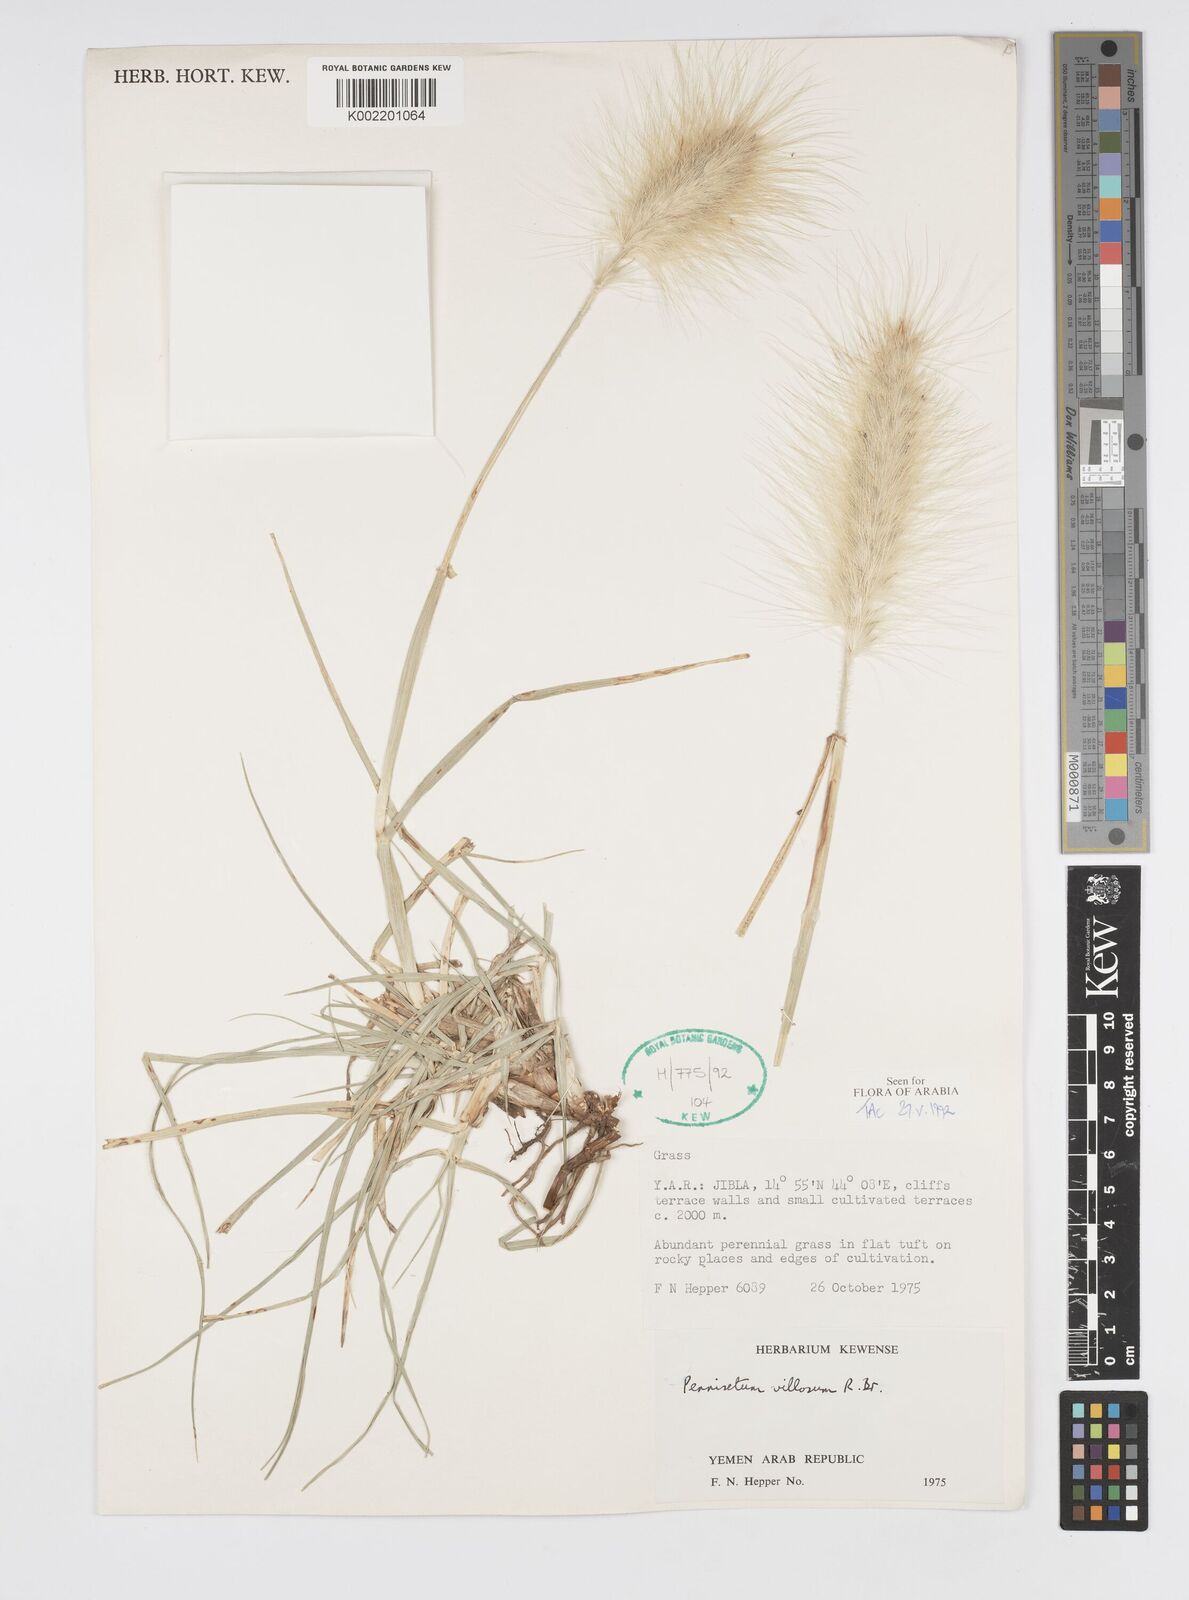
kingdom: Plantae
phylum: Tracheophyta
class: Liliopsida
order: Poales
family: Poaceae
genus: Cenchrus
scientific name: Cenchrus longisetus
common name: Feathertop
